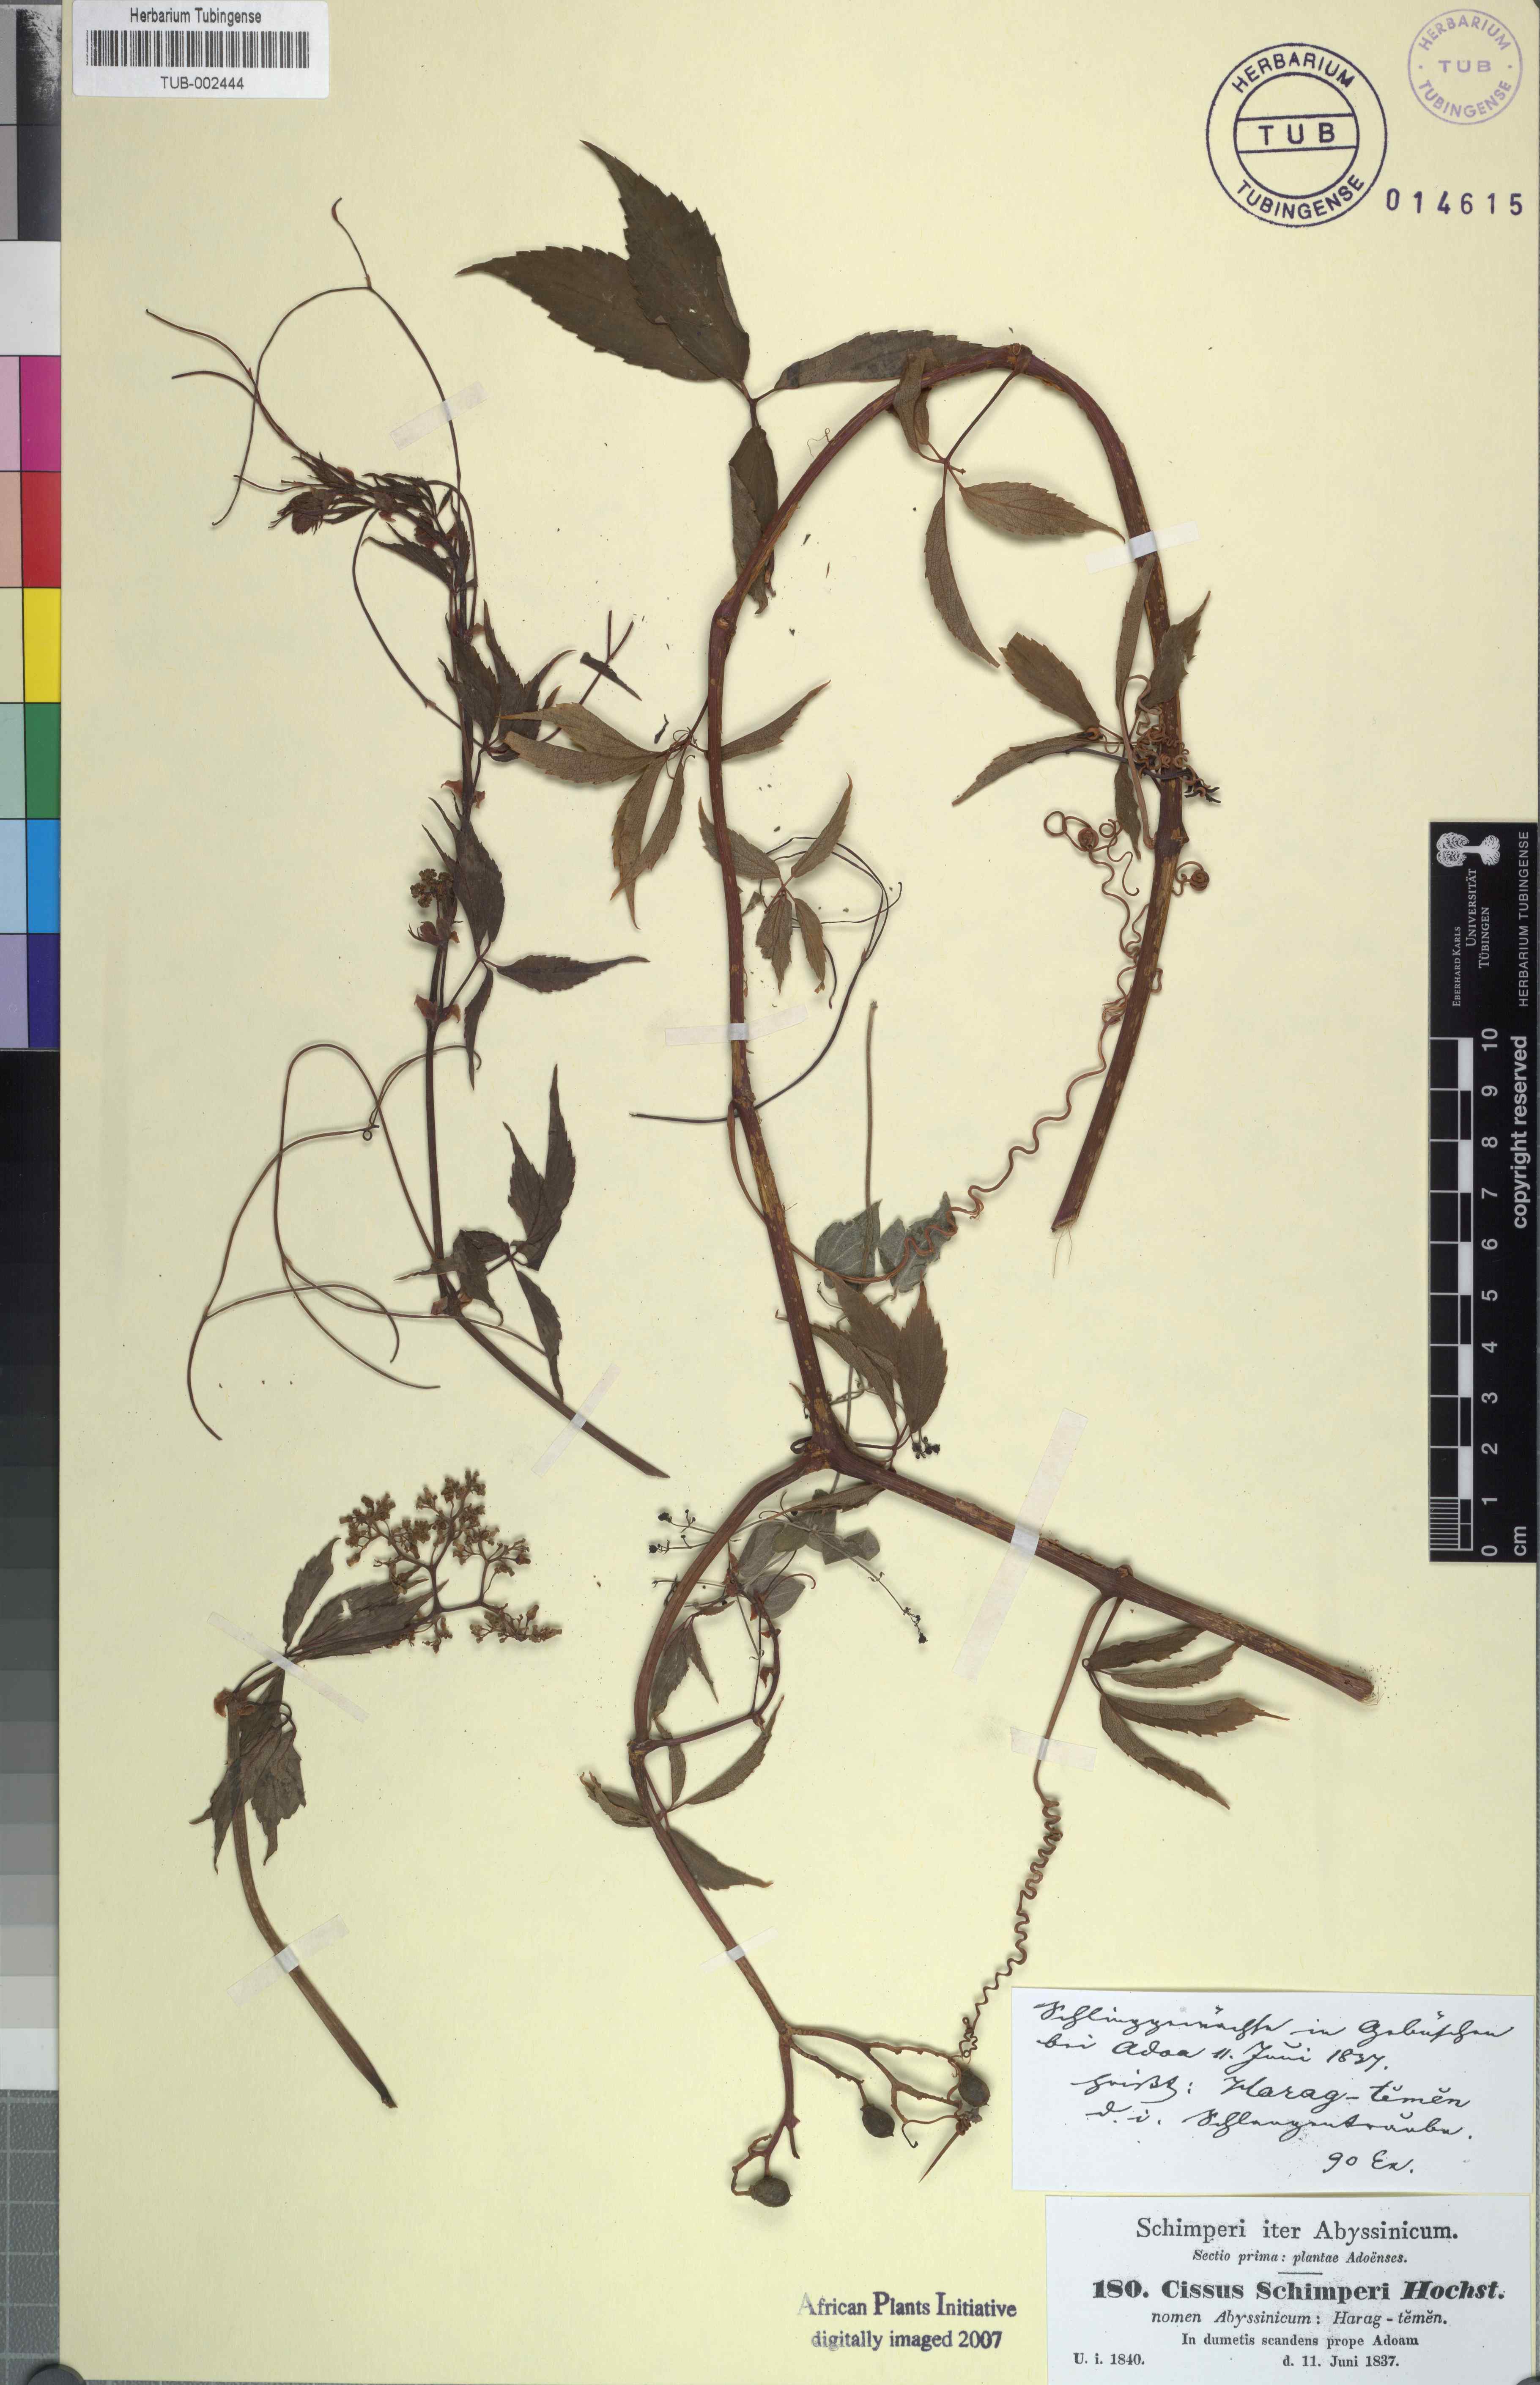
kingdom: Plantae
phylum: Tracheophyta
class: Magnoliopsida
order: Vitales
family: Vitaceae
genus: Cyphostemma
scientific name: Cyphostemma oxyphyllum
